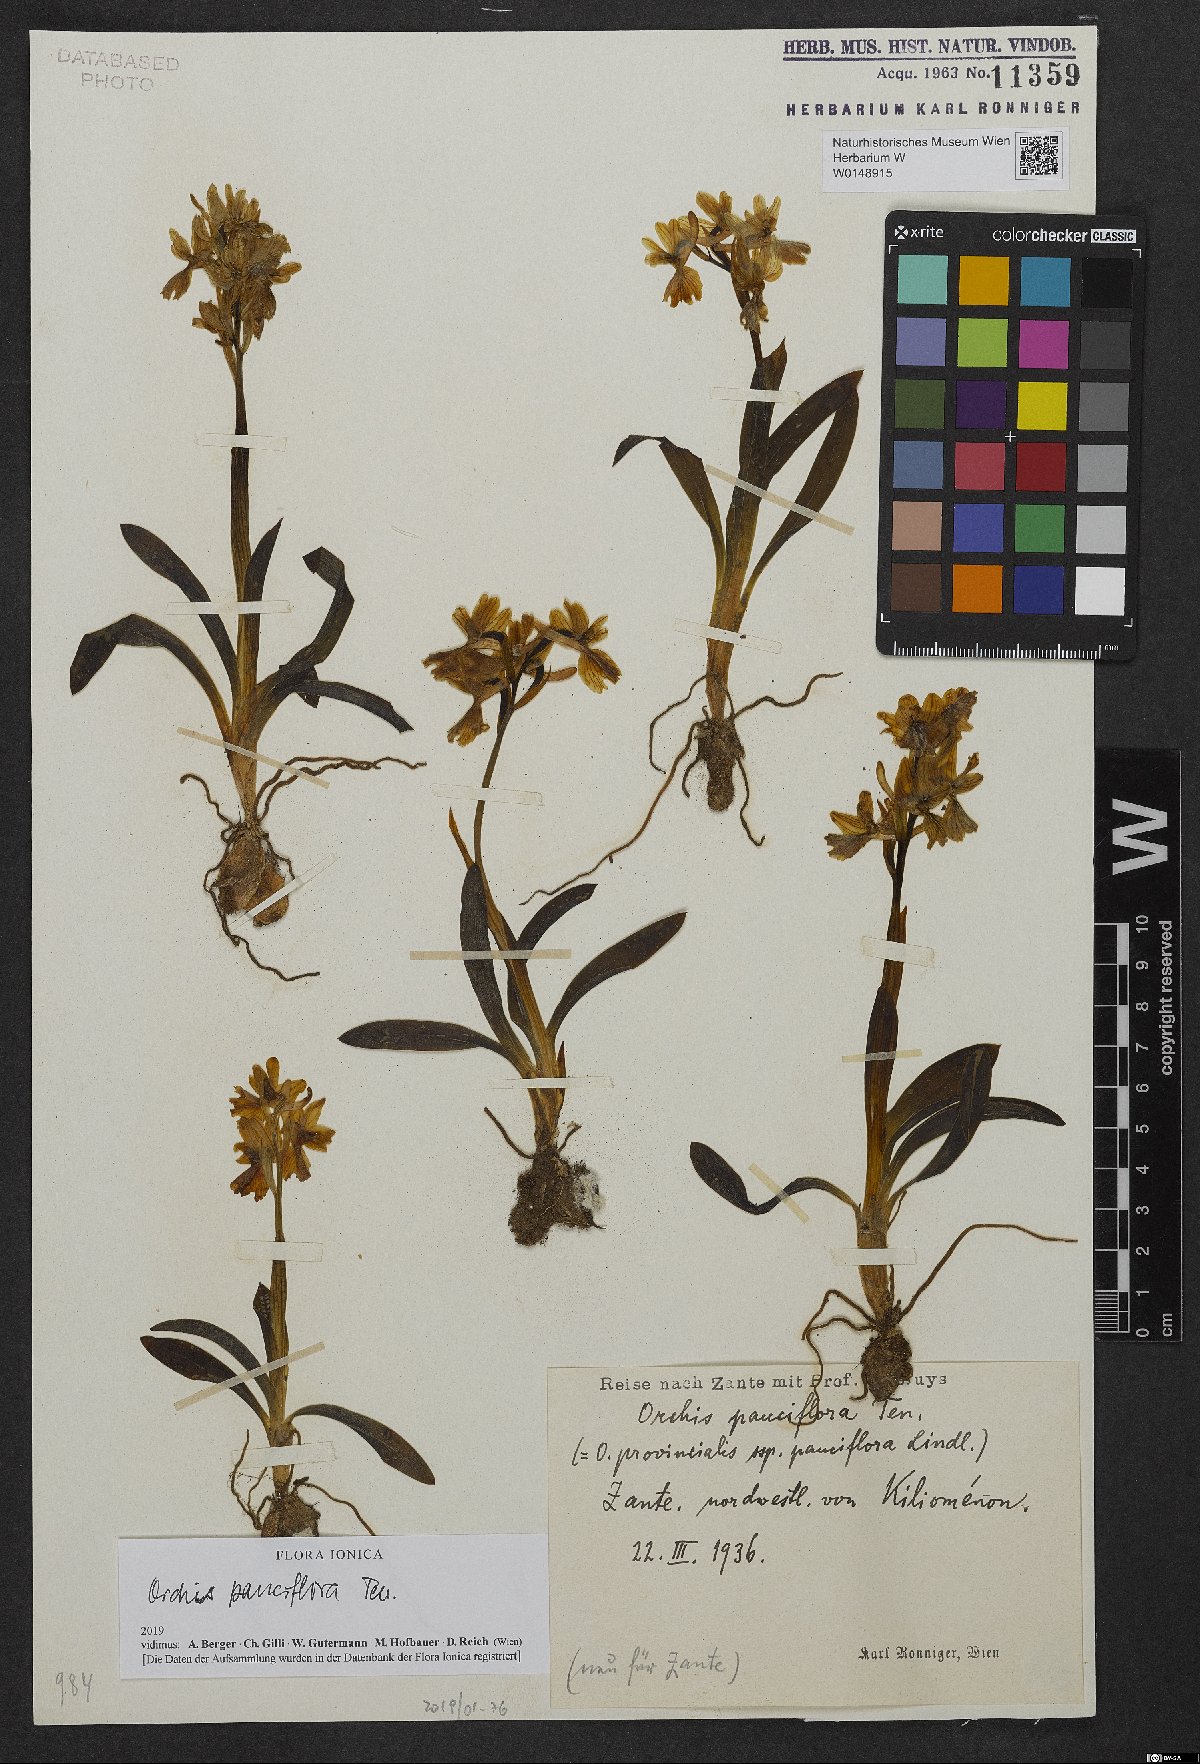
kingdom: Plantae
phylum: Tracheophyta
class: Liliopsida
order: Asparagales
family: Orchidaceae
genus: Orchis
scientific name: Orchis pauciflora
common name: Few-flowered orchid
